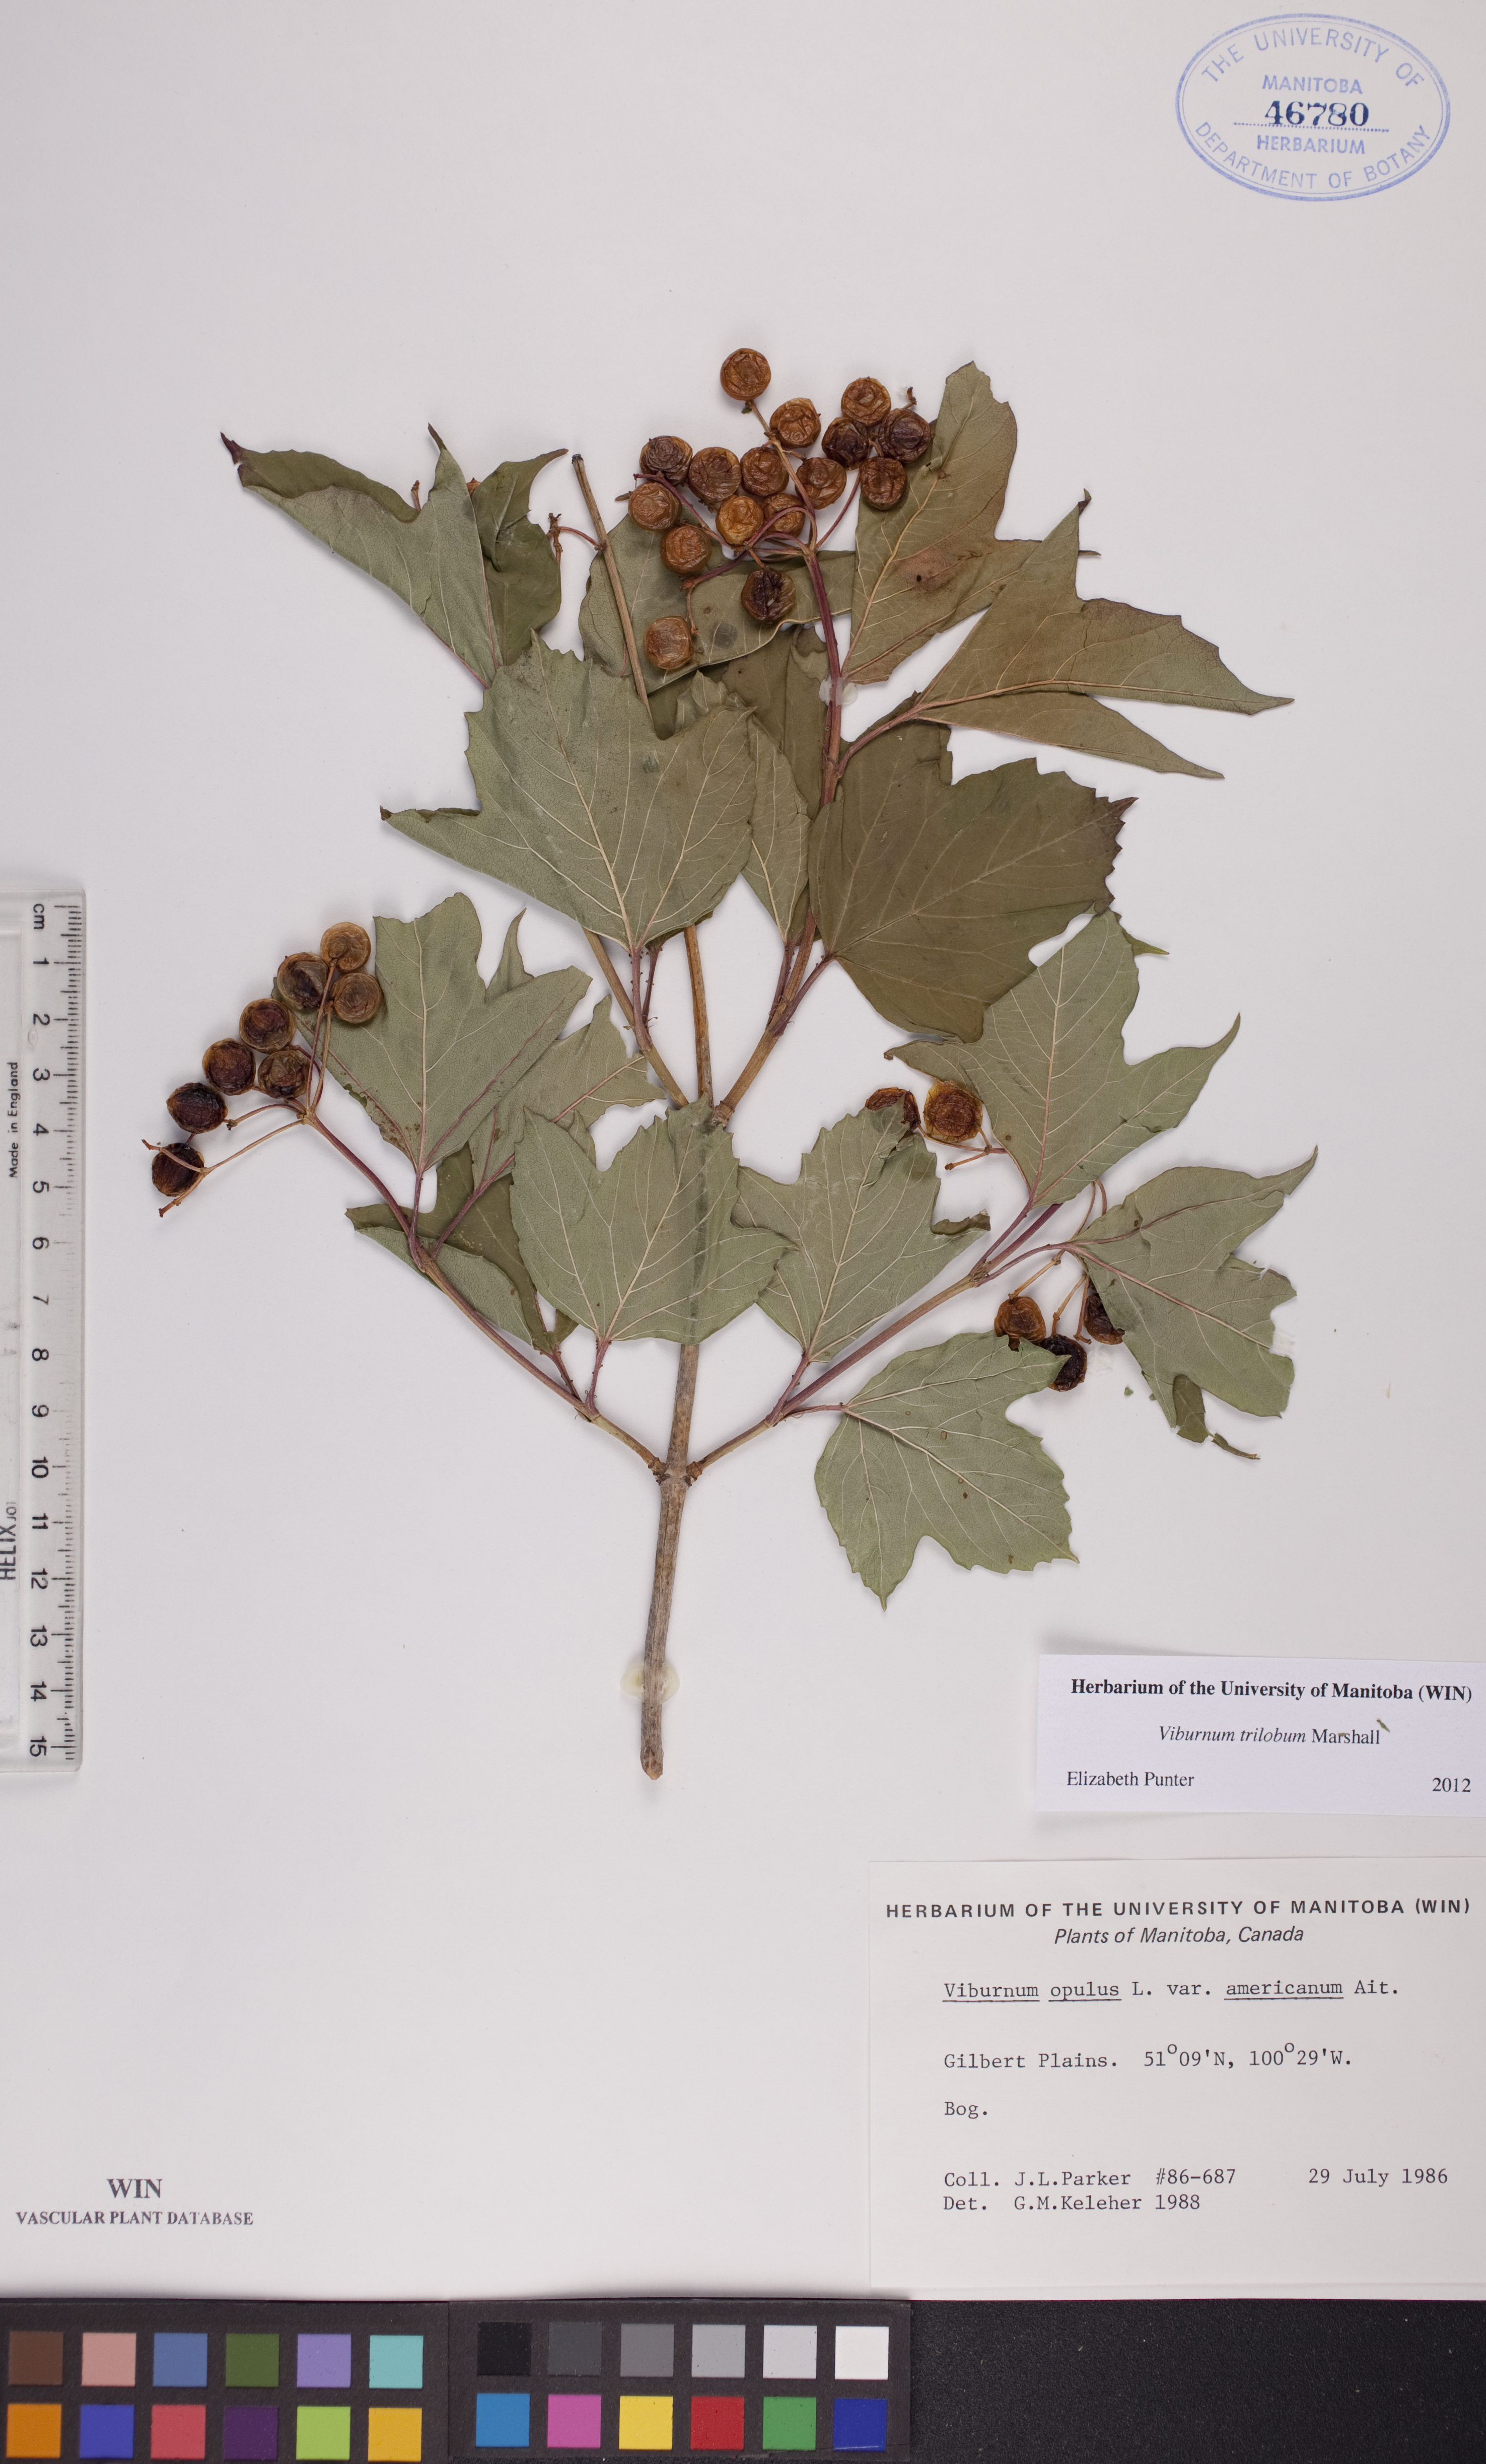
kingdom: Plantae
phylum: Tracheophyta
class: Magnoliopsida
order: Dipsacales
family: Viburnaceae
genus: Viburnum
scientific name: Viburnum trilobum
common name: American cranberrybush
